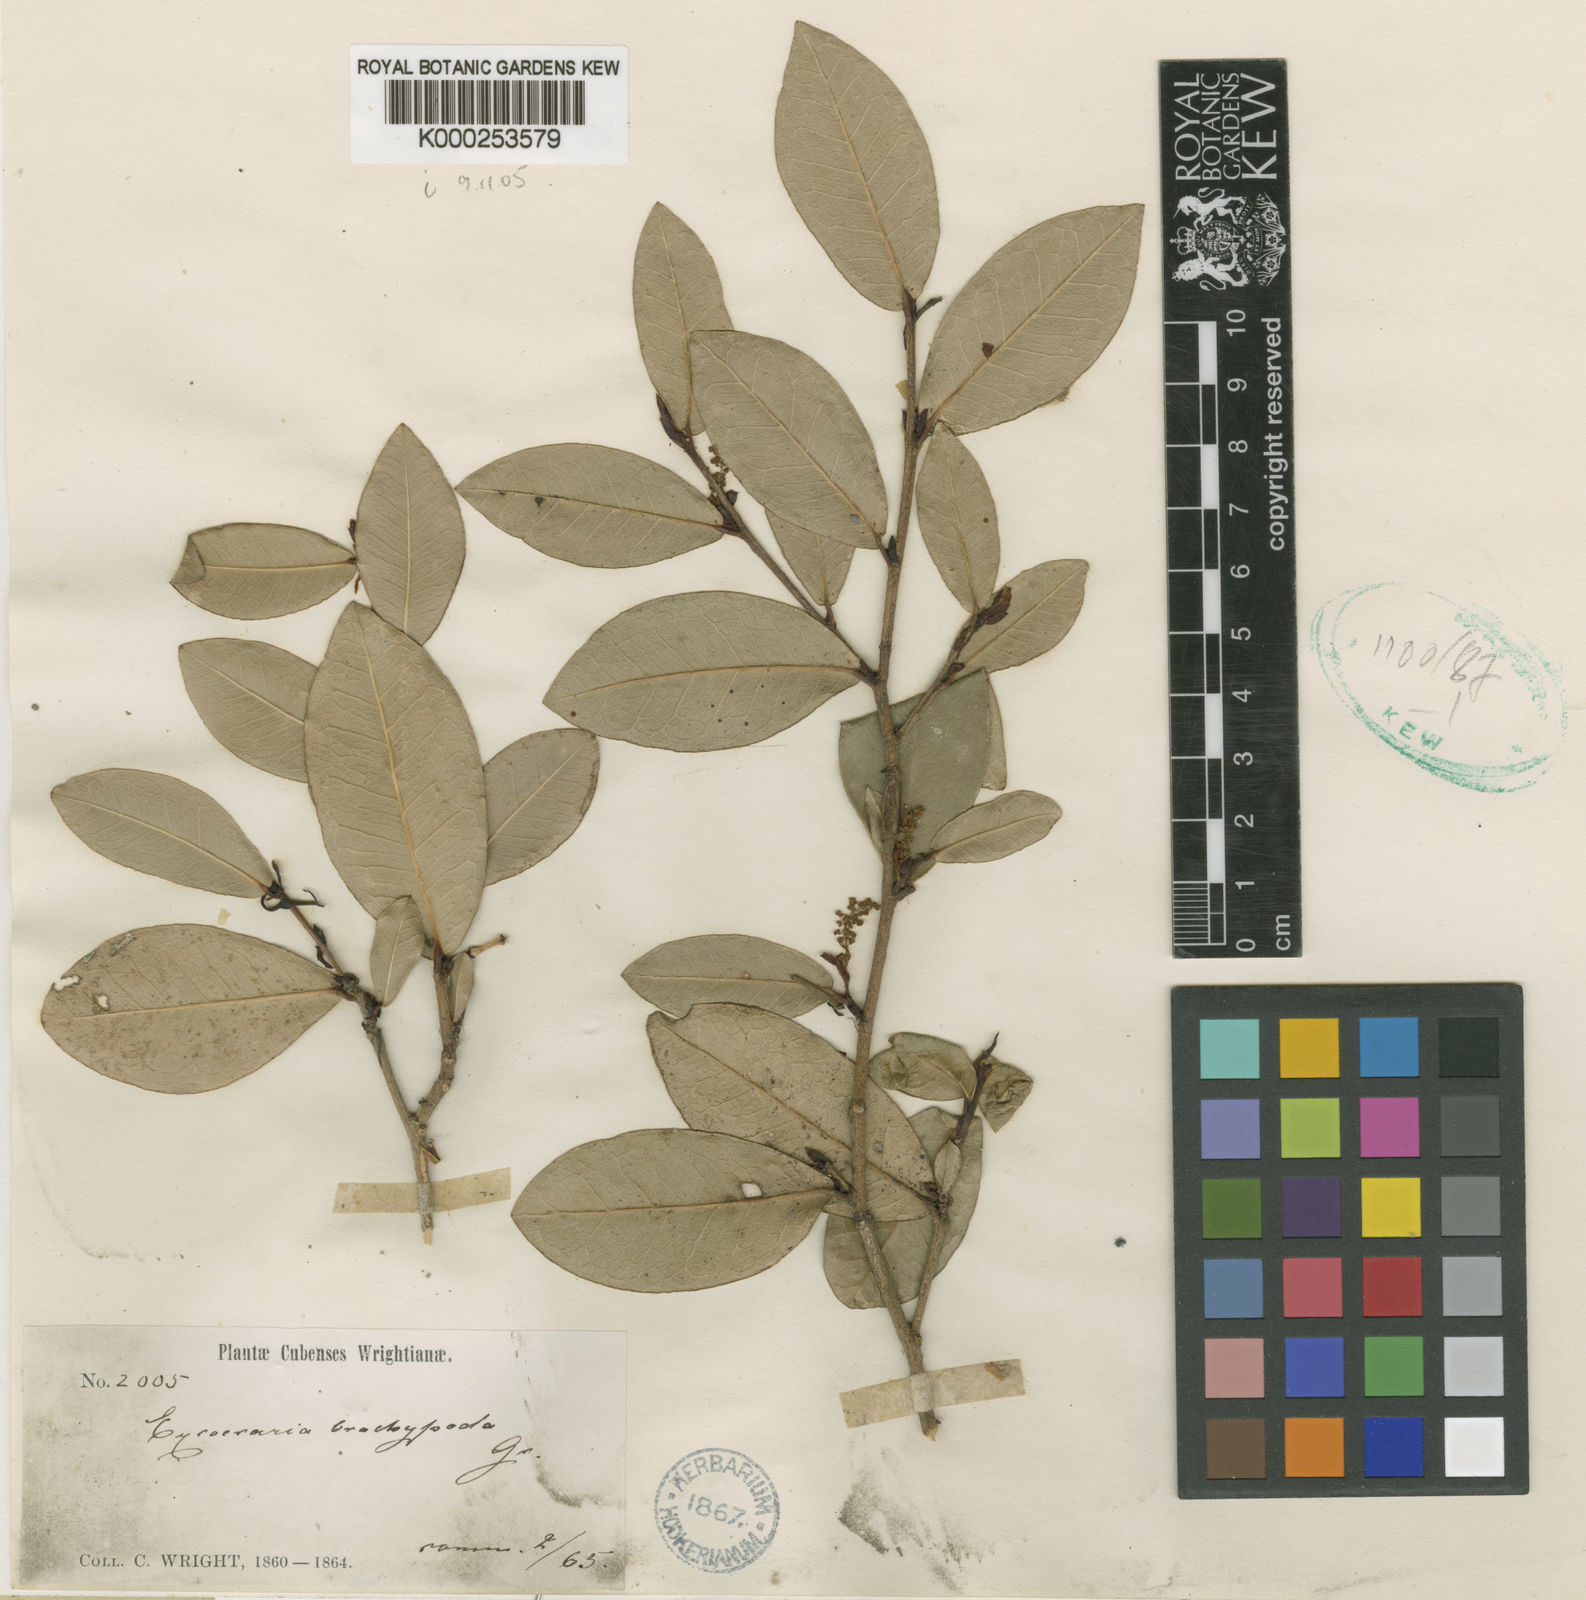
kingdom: Plantae
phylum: Tracheophyta
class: Magnoliopsida
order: Malpighiales
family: Euphorbiaceae
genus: Actinostemon
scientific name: Actinostemon brachypodus
